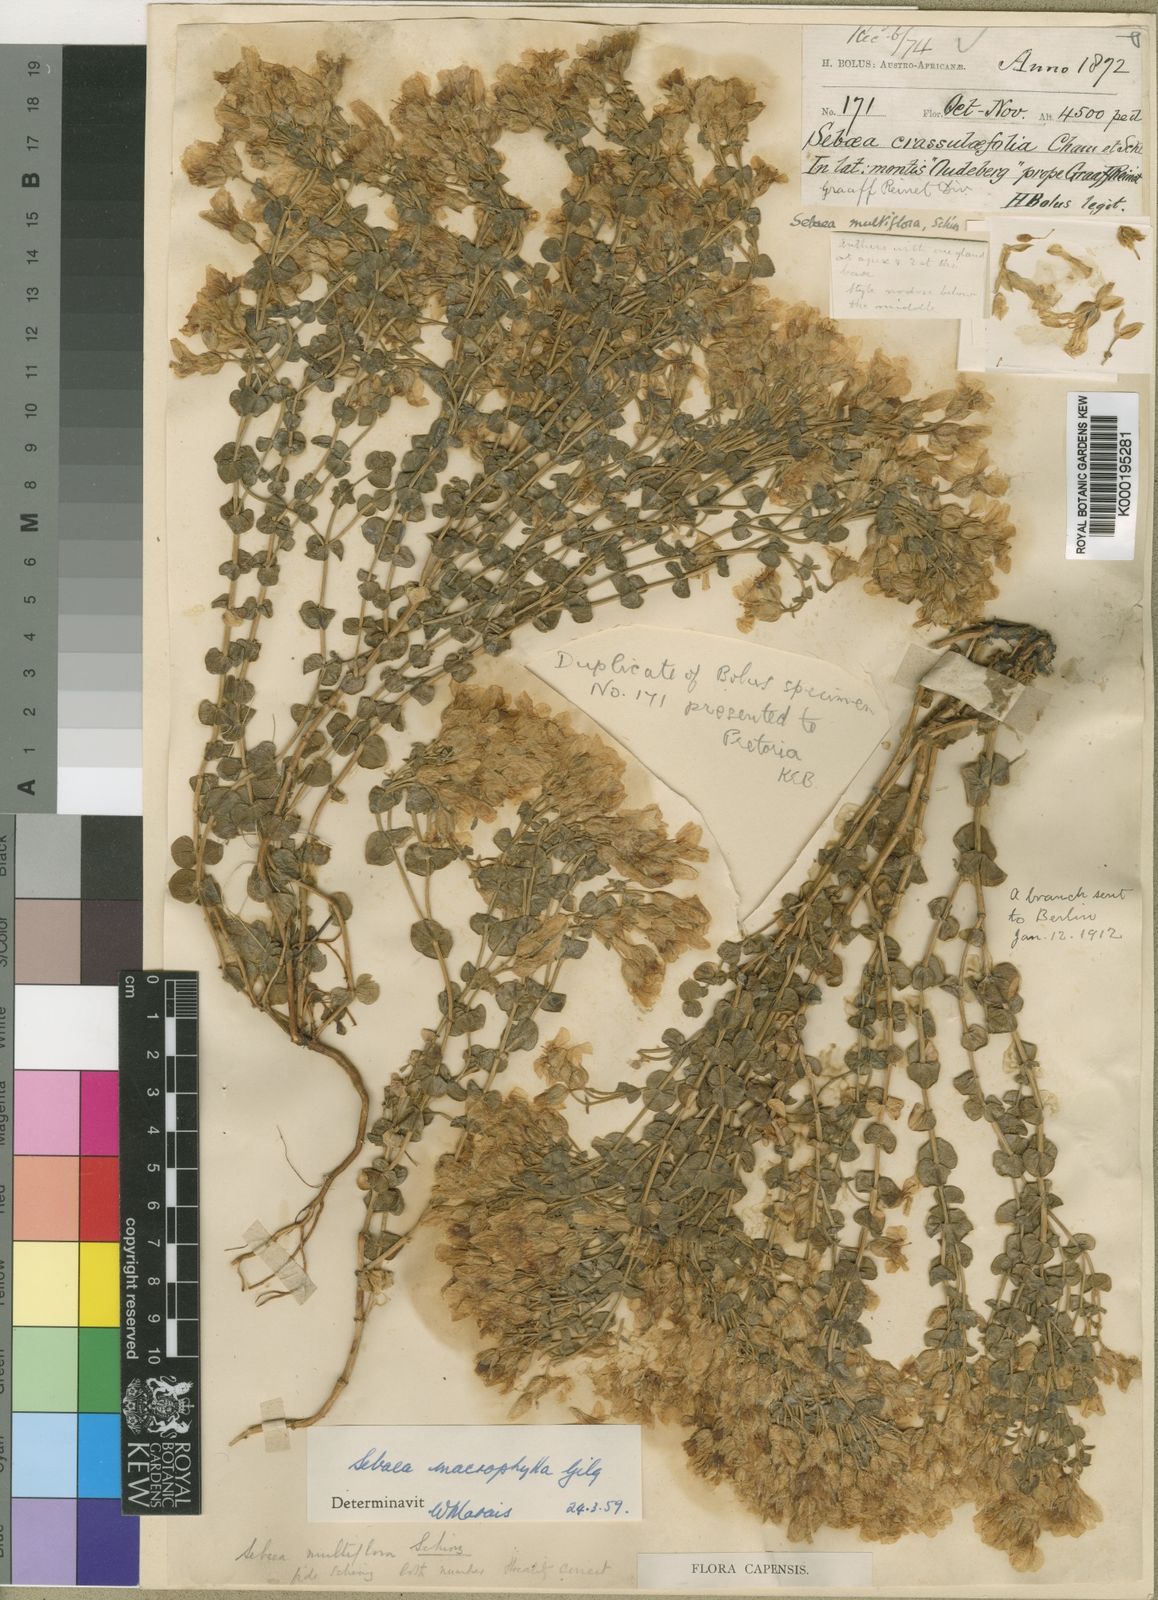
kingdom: Plantae
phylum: Tracheophyta
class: Magnoliopsida
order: Gentianales
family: Gentianaceae
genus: Sebaea
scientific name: Sebaea macrophylla
